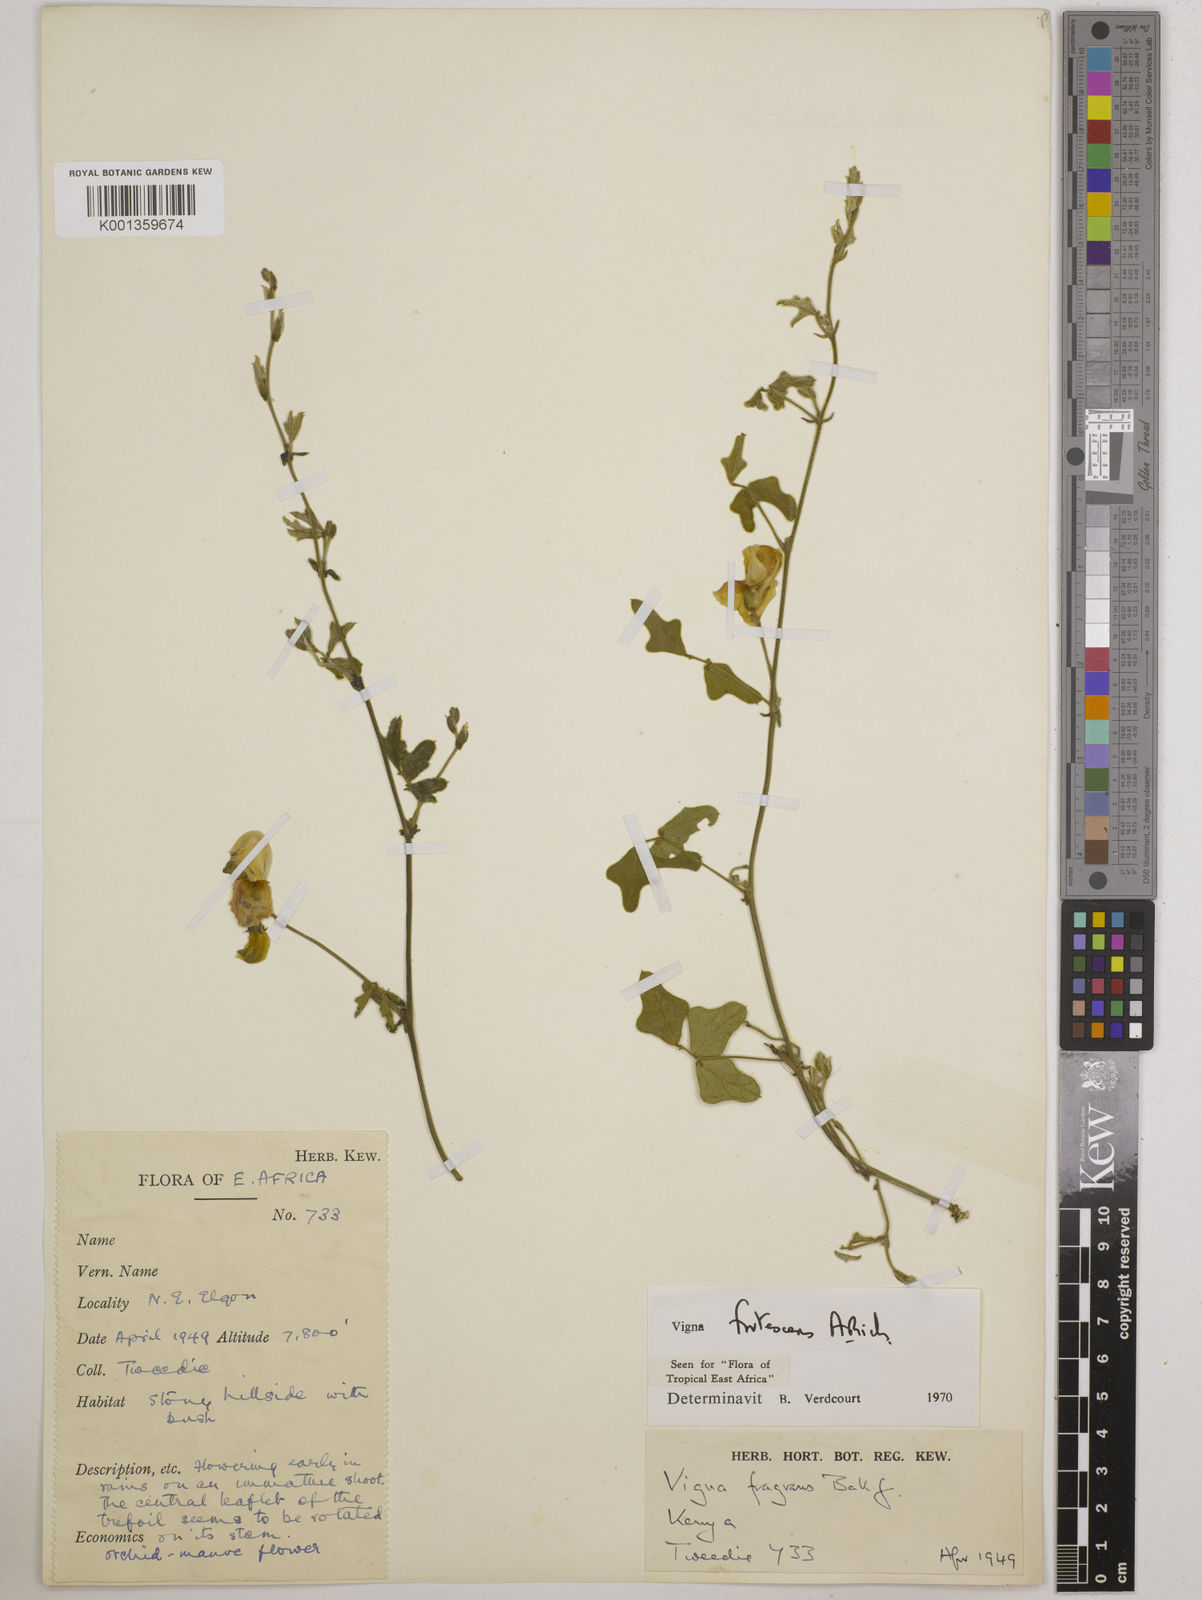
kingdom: Plantae
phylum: Tracheophyta
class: Magnoliopsida
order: Fabales
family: Fabaceae
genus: Vigna
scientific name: Vigna frutescens
